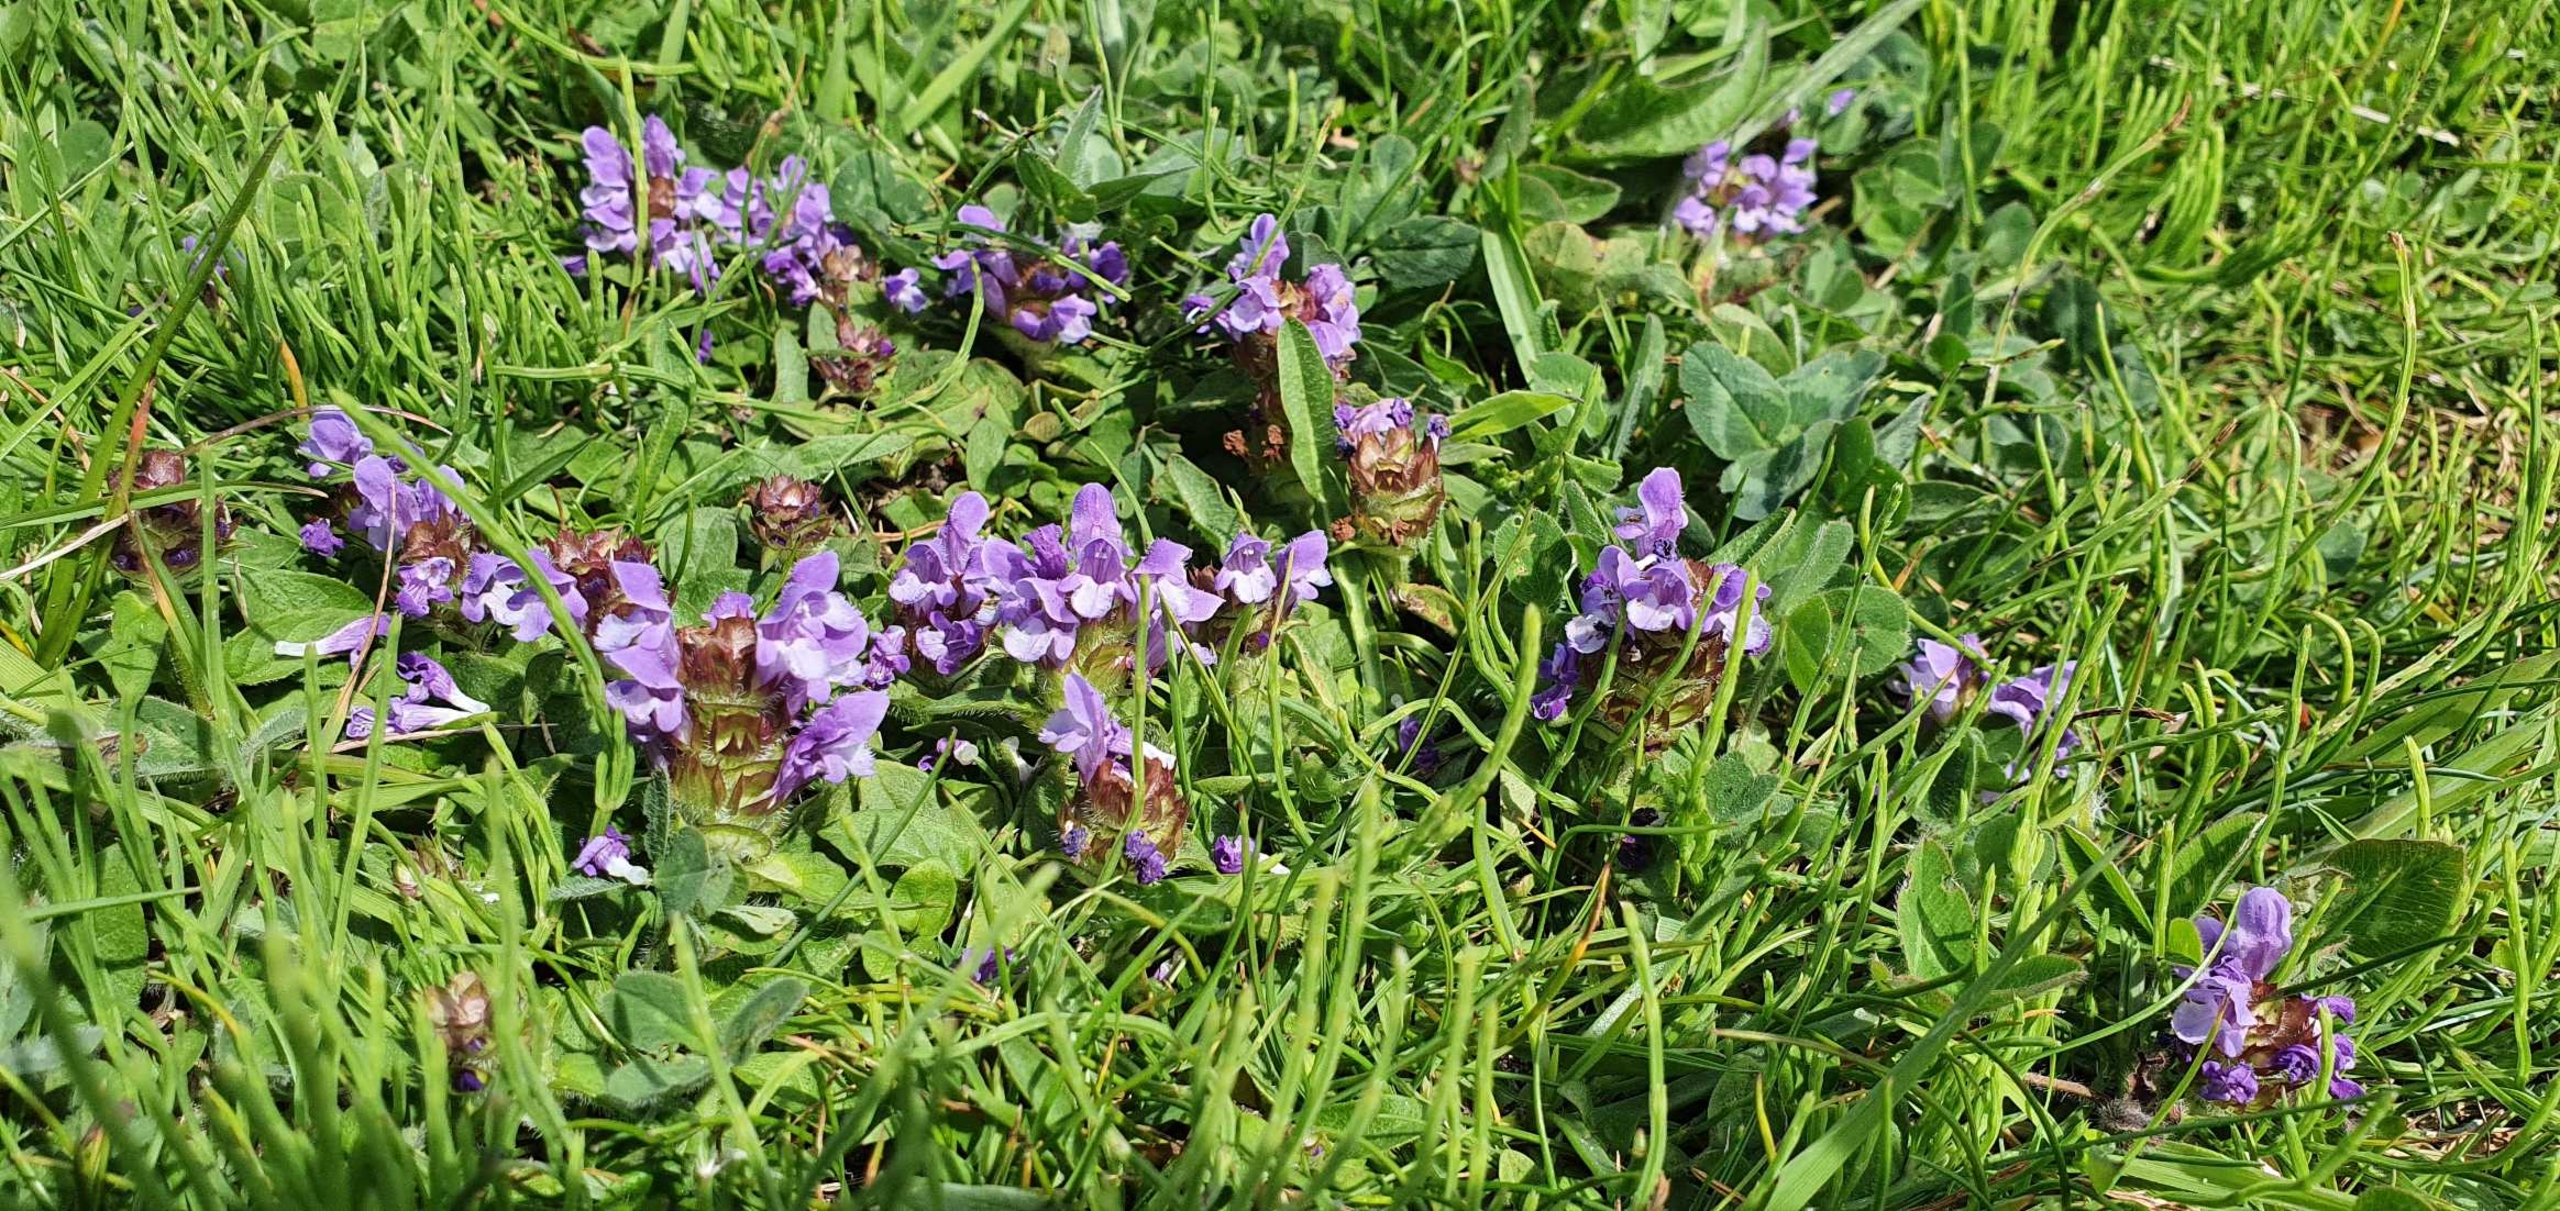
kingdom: Plantae
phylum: Tracheophyta
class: Magnoliopsida
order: Lamiales
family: Lamiaceae
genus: Prunella
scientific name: Prunella vulgaris
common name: Almindelig brunelle
